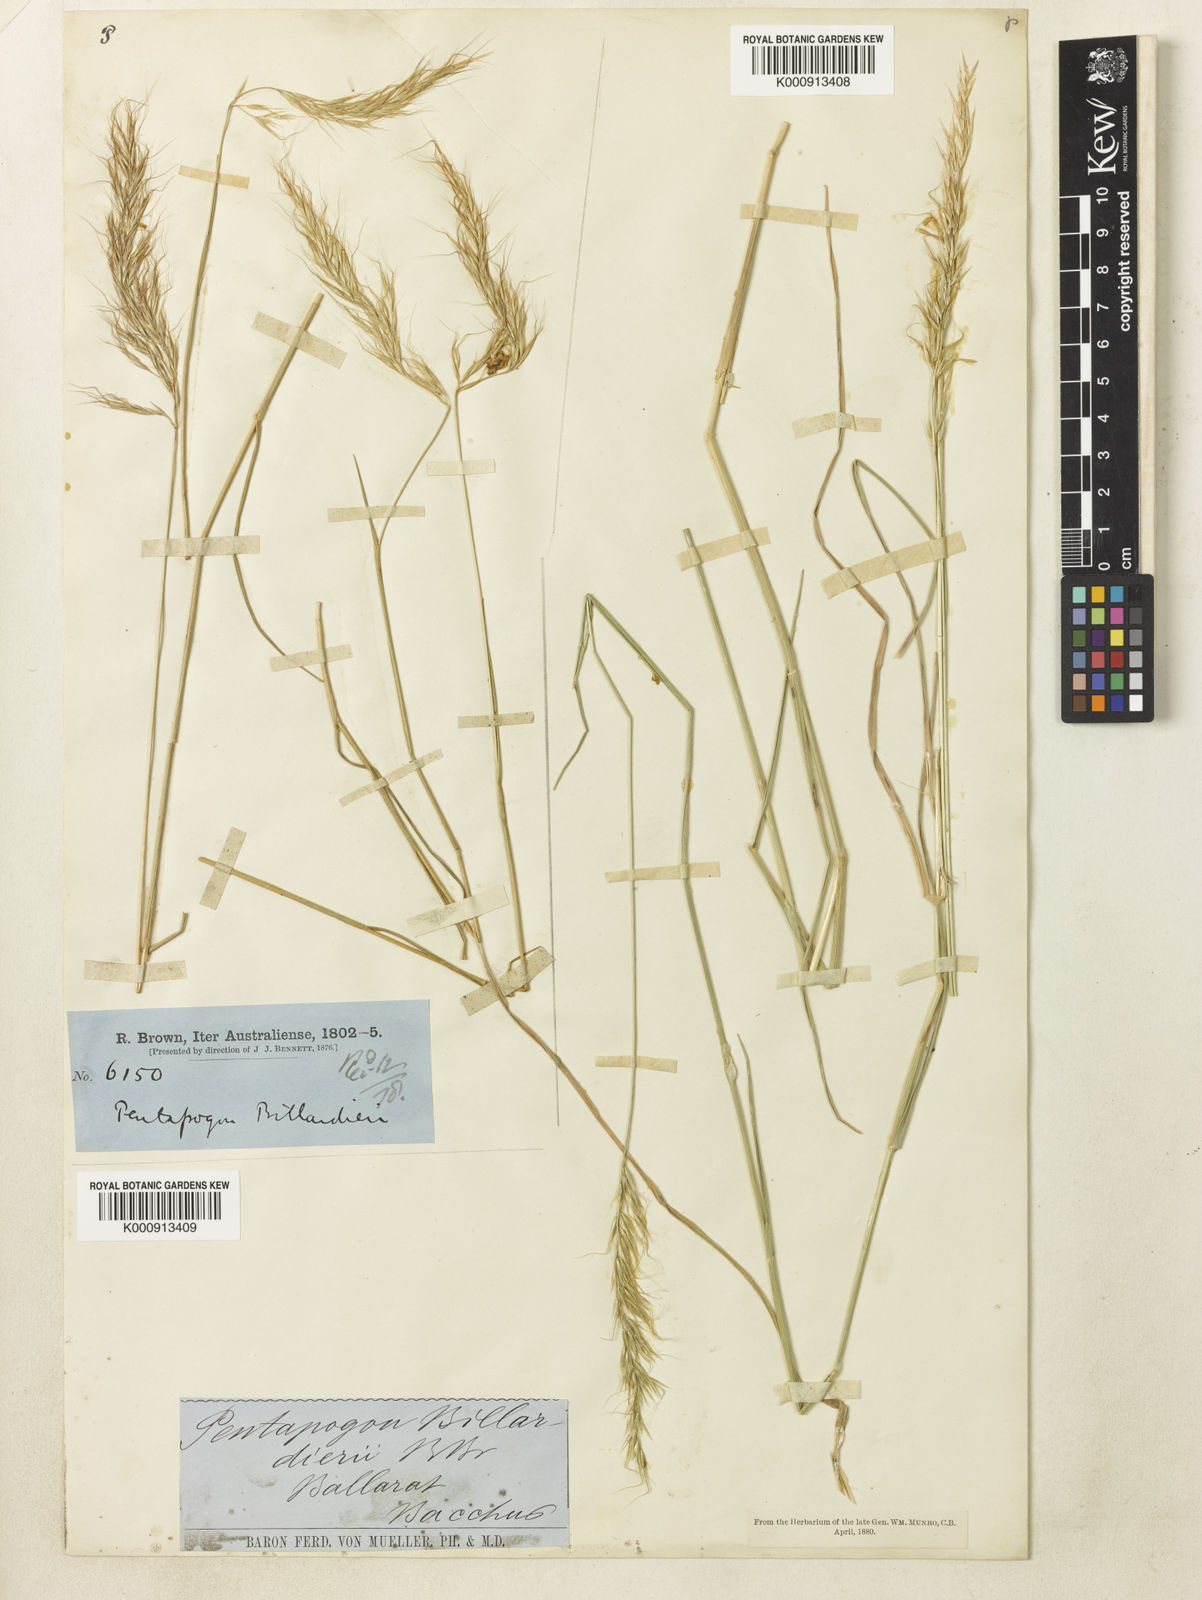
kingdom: Plantae
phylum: Tracheophyta
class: Liliopsida
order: Poales
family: Poaceae
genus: Pentapogon
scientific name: Pentapogon quadrifidus
